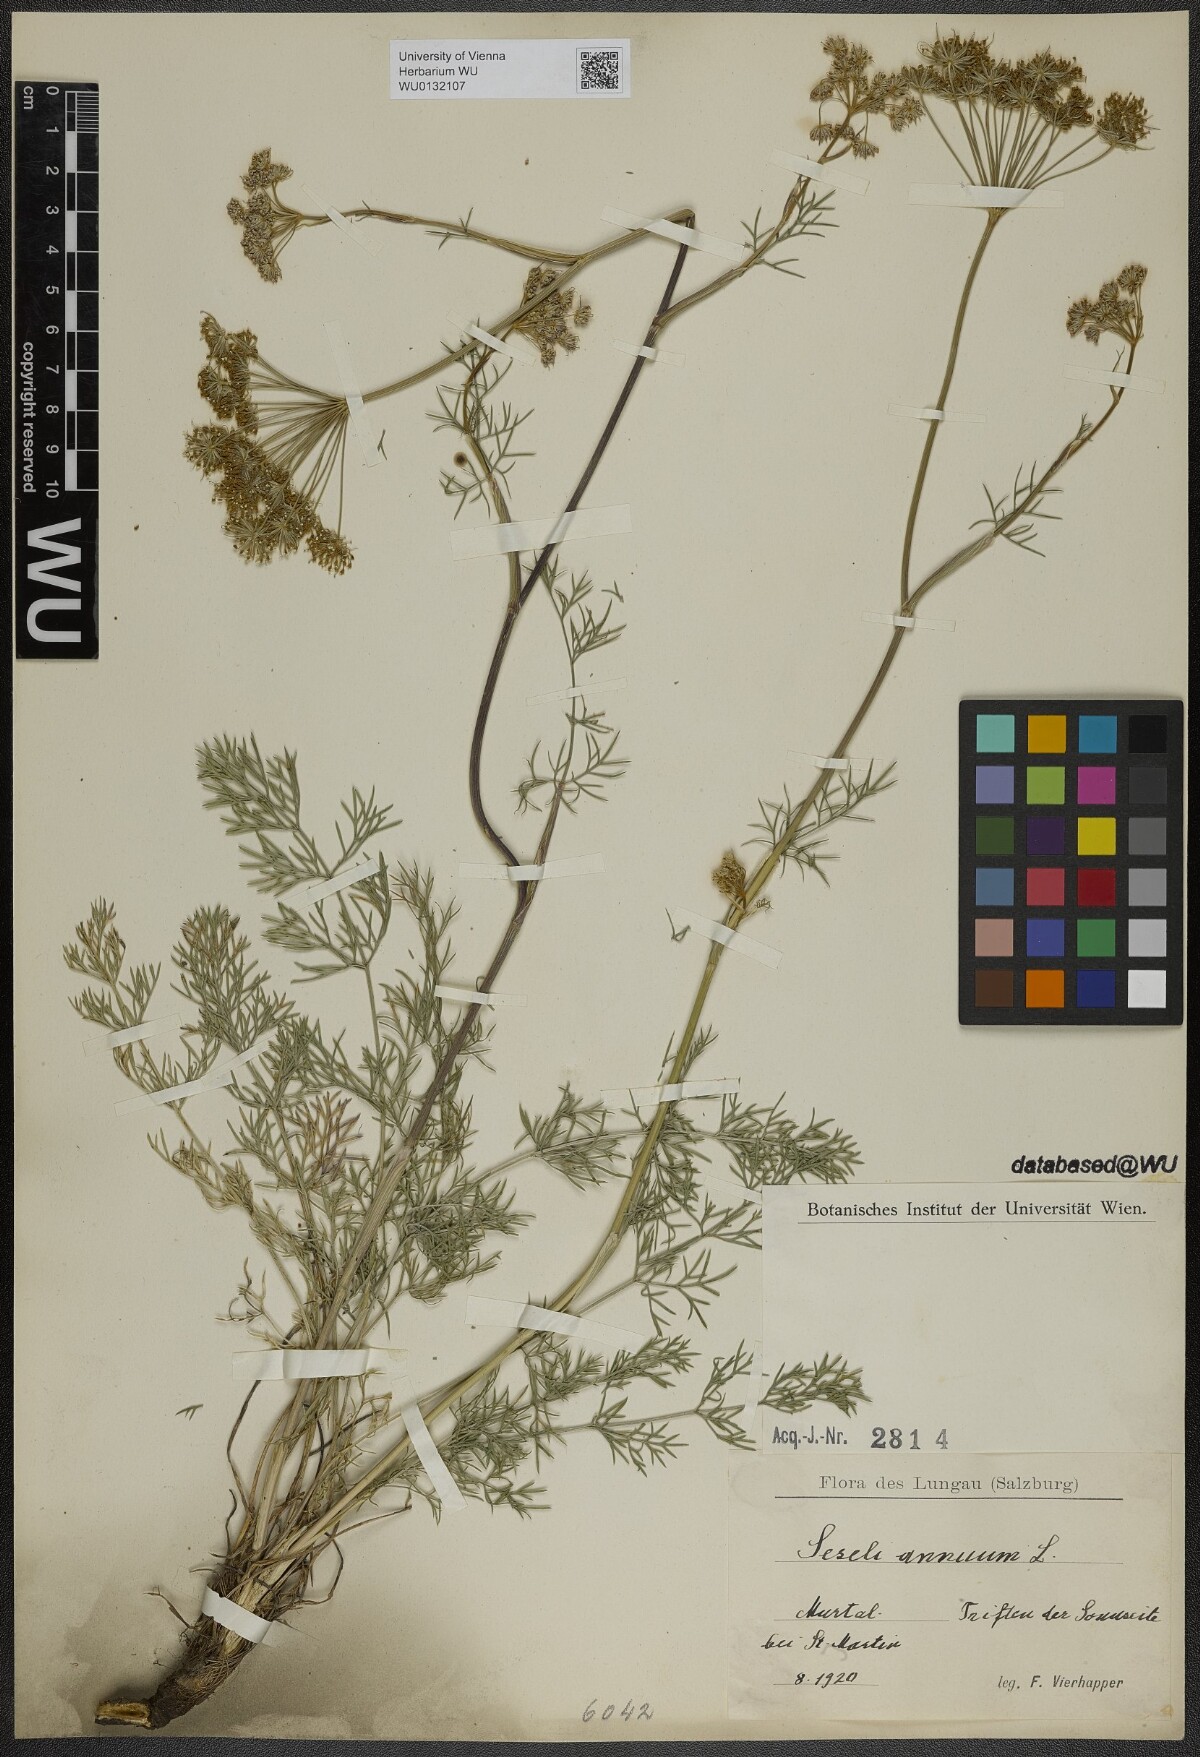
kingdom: Plantae
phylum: Tracheophyta
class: Magnoliopsida
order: Apiales
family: Apiaceae
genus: Seseli
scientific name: Seseli annuum
